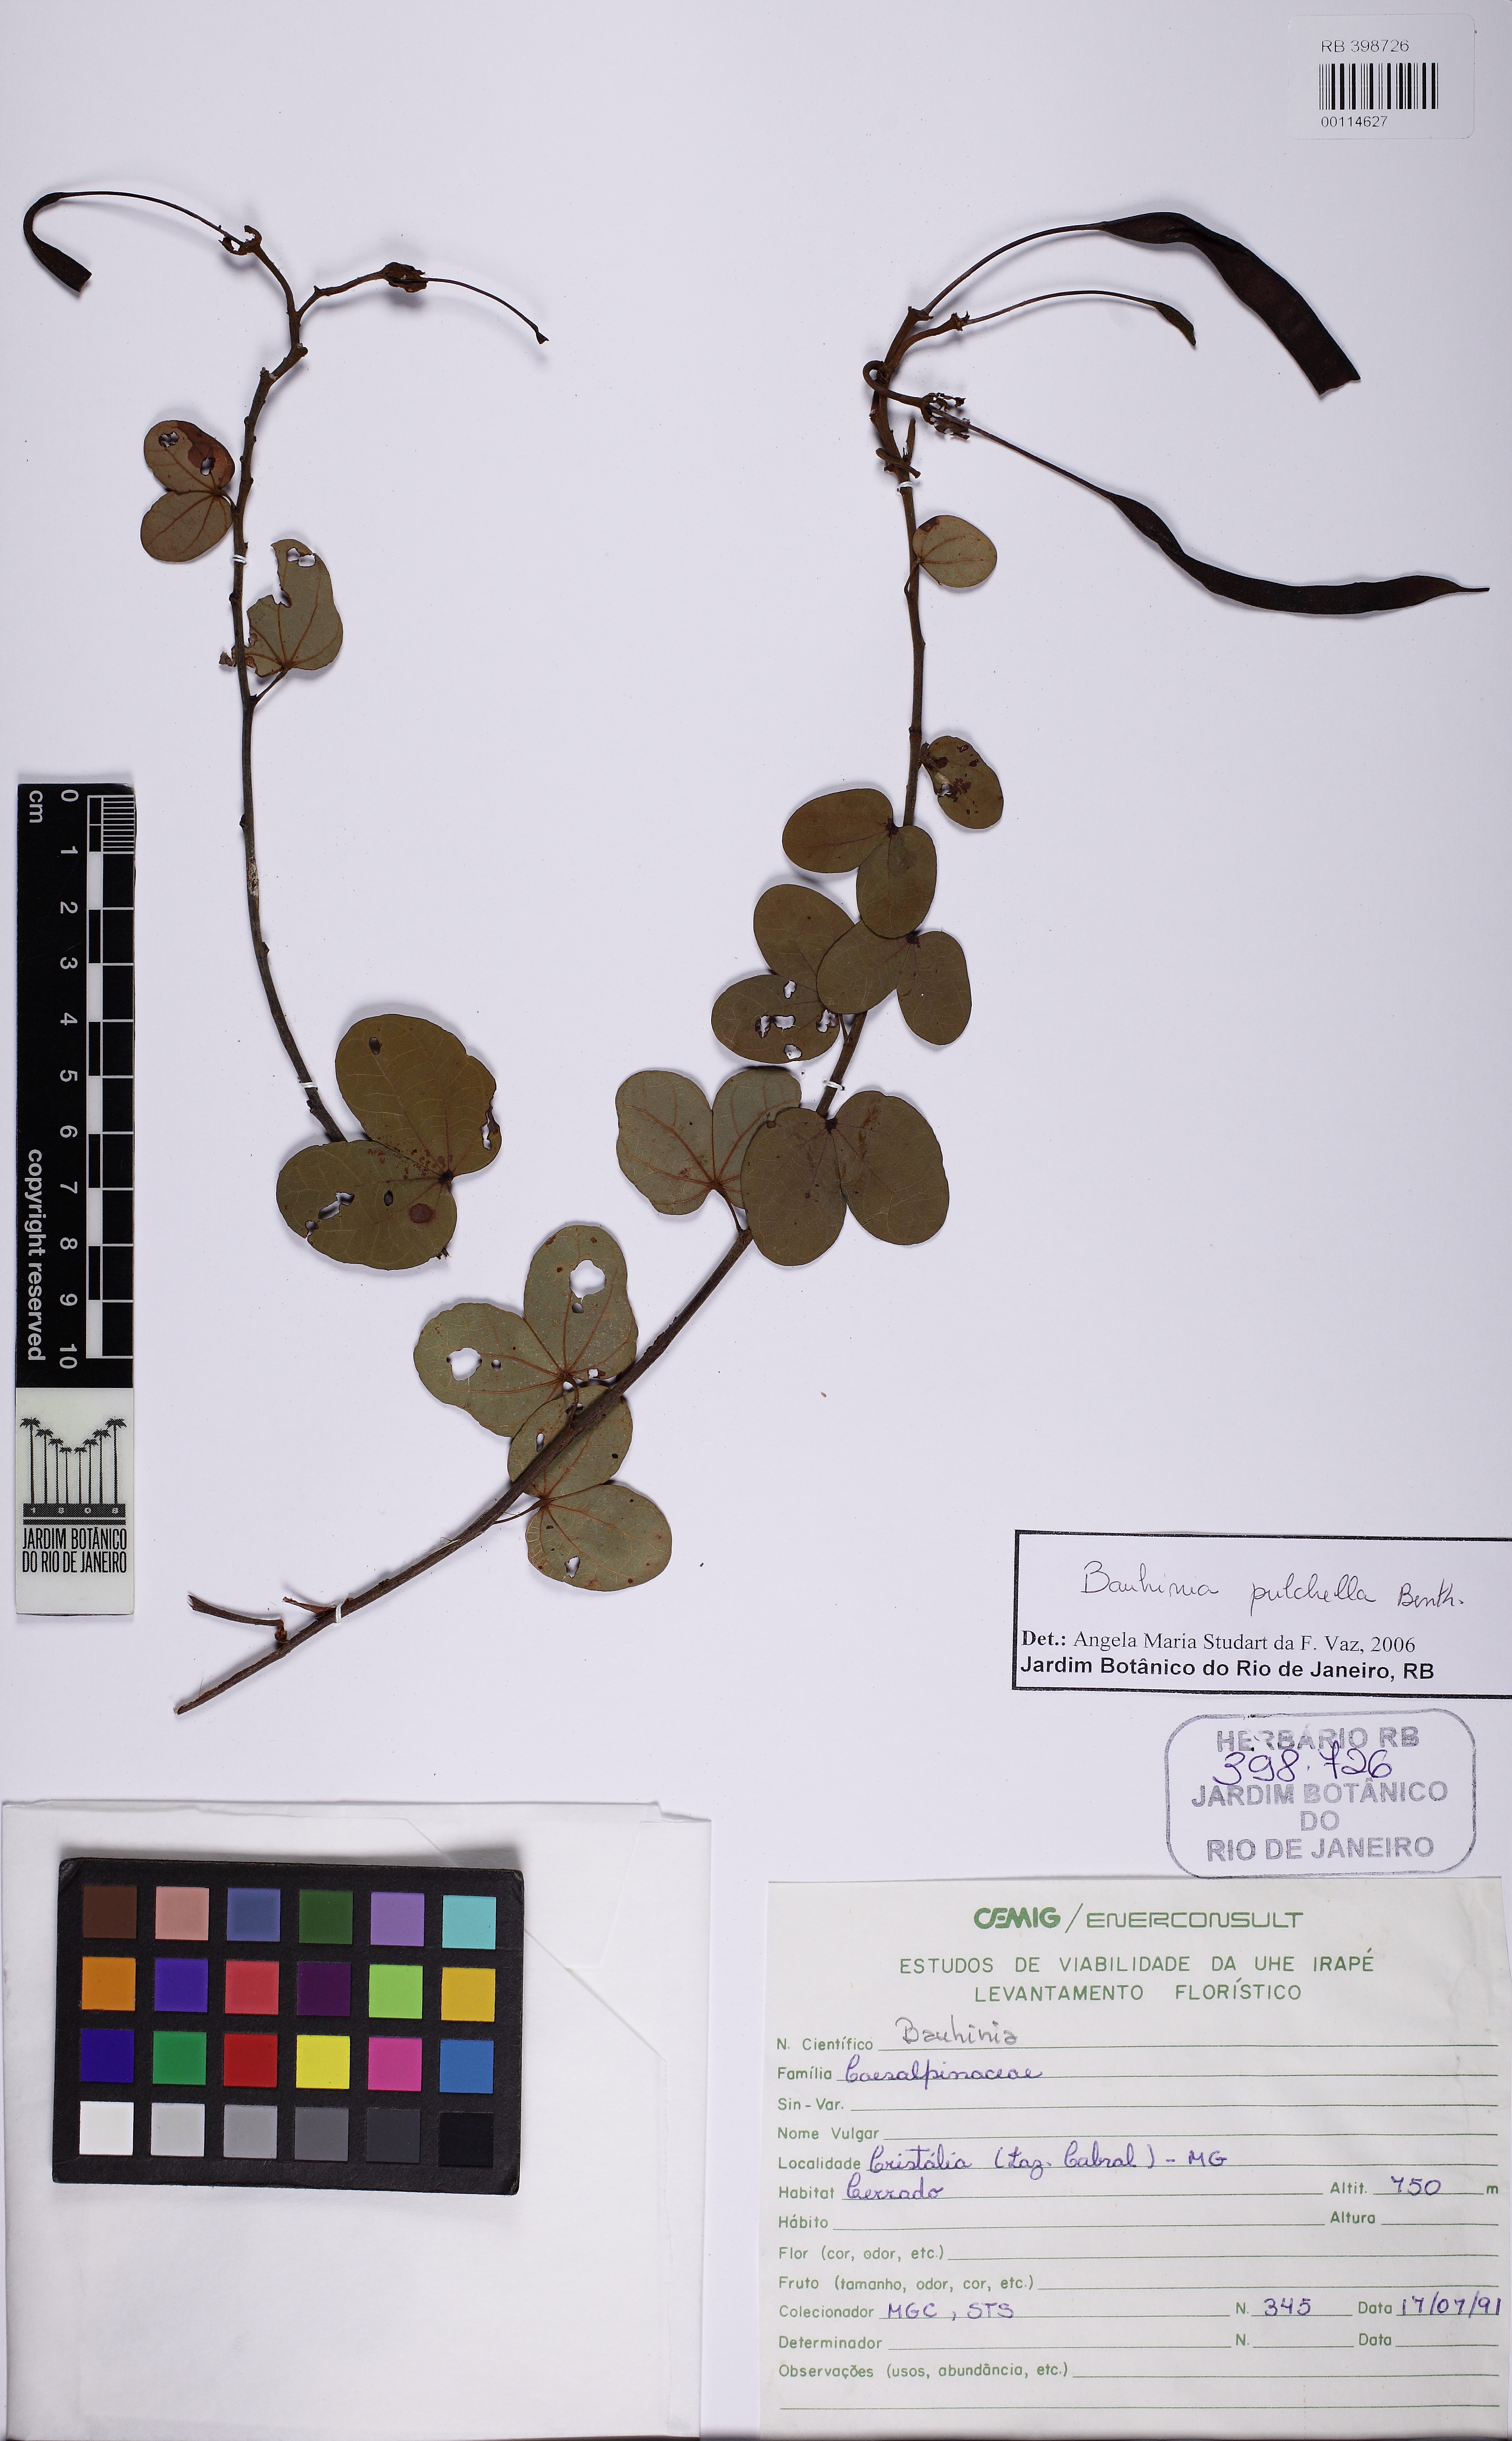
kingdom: Plantae
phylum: Tracheophyta
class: Magnoliopsida
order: Fabales
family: Fabaceae
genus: Bauhinia
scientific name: Bauhinia
